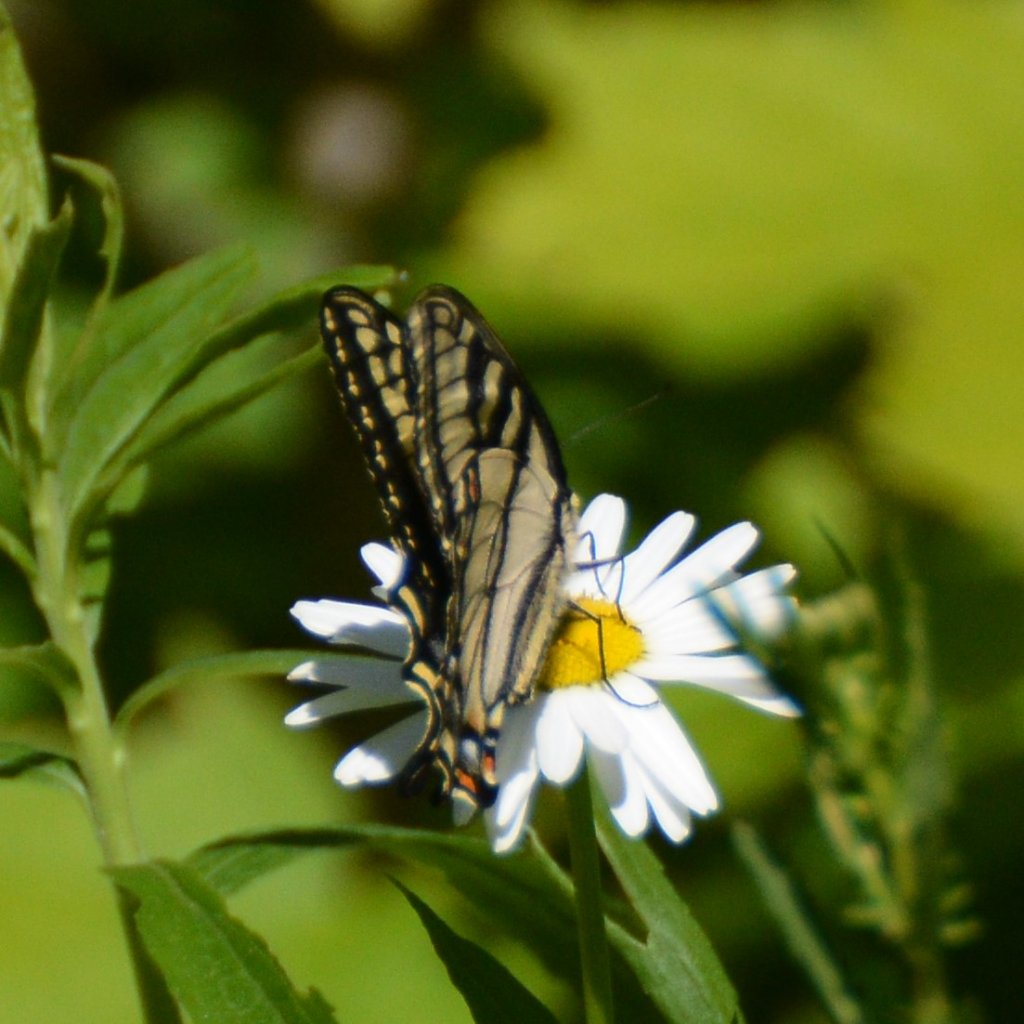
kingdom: Animalia
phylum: Arthropoda
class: Insecta
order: Lepidoptera
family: Papilionidae
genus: Pterourus
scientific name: Pterourus canadensis
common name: Canadian Tiger Swallowtail
